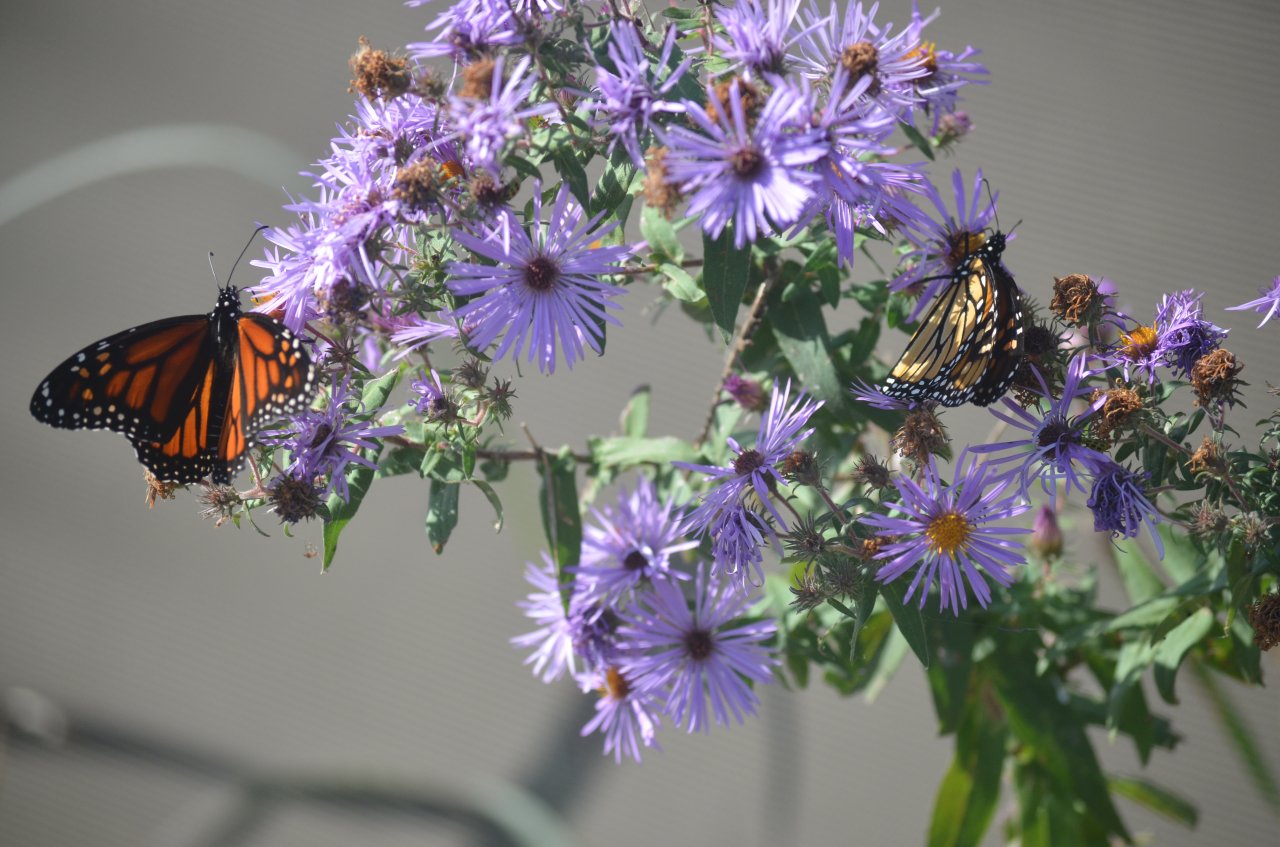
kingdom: Animalia
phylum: Arthropoda
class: Insecta
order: Lepidoptera
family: Nymphalidae
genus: Danaus
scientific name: Danaus plexippus
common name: Monarch
